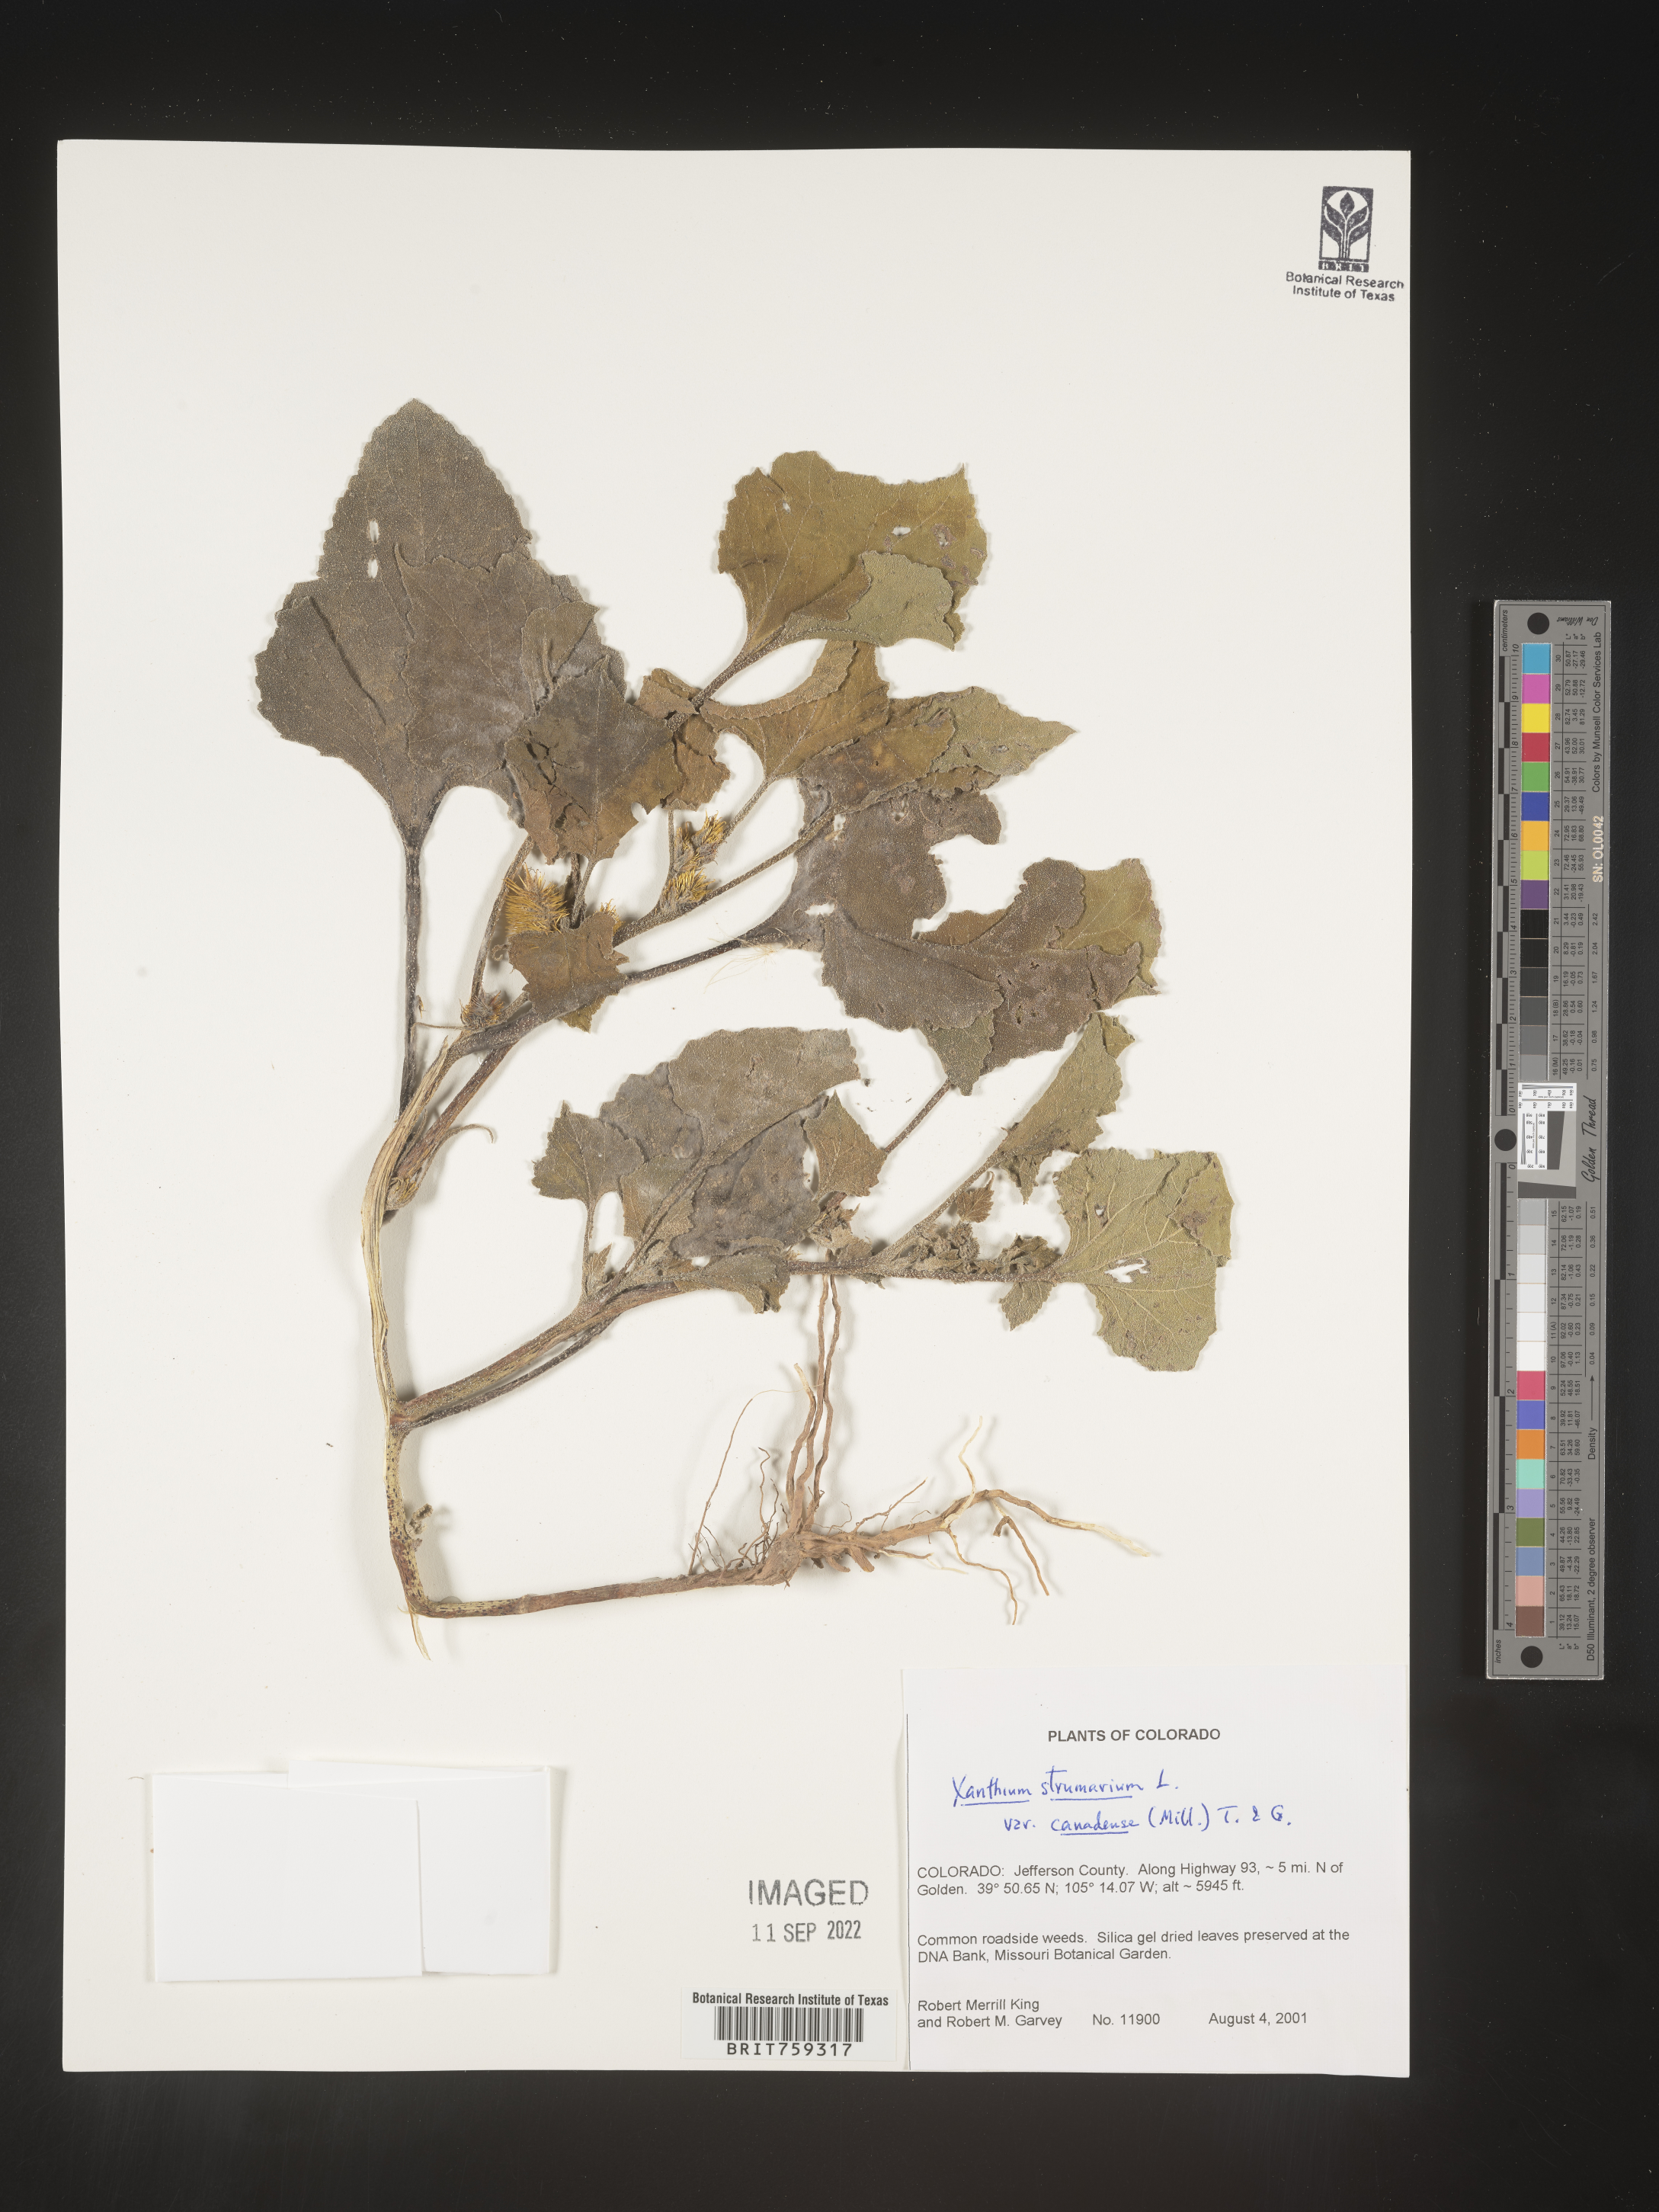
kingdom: Plantae
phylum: Tracheophyta
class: Magnoliopsida
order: Asterales
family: Asteraceae
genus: Xanthium
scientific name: Xanthium orientale
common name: Californian burr
